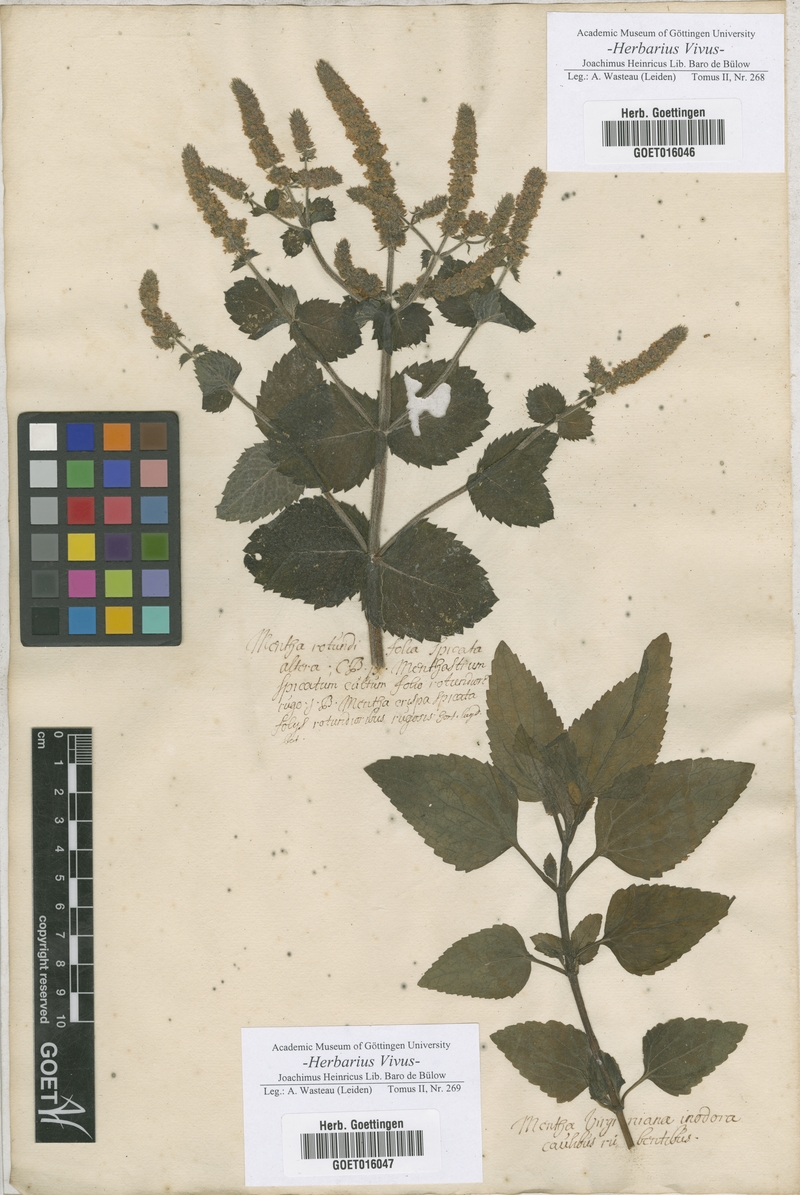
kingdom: Plantae
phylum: Tracheophyta
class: Magnoliopsida
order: Lamiales
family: Lamiaceae
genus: Mentha
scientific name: Mentha
